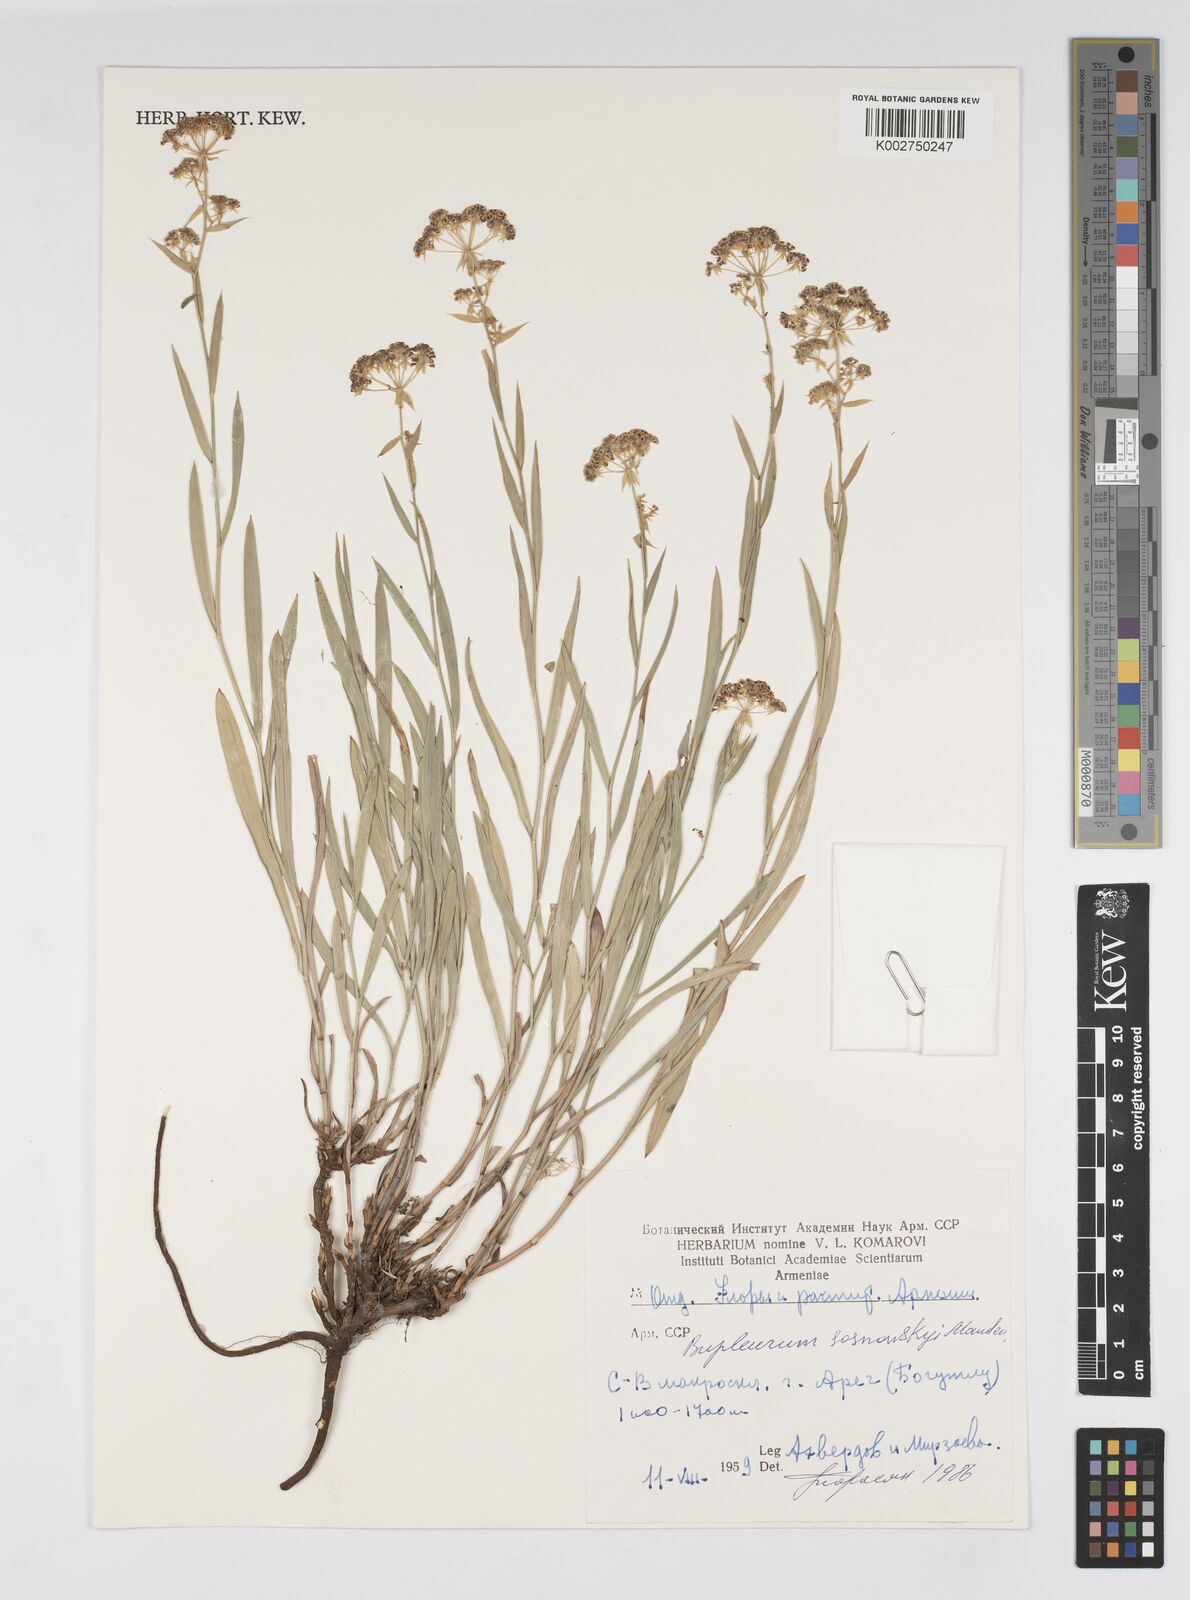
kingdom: Plantae
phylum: Tracheophyta
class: Magnoliopsida
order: Apiales
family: Apiaceae
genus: Bupleurum
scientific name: Bupleurum sosnowskyi
